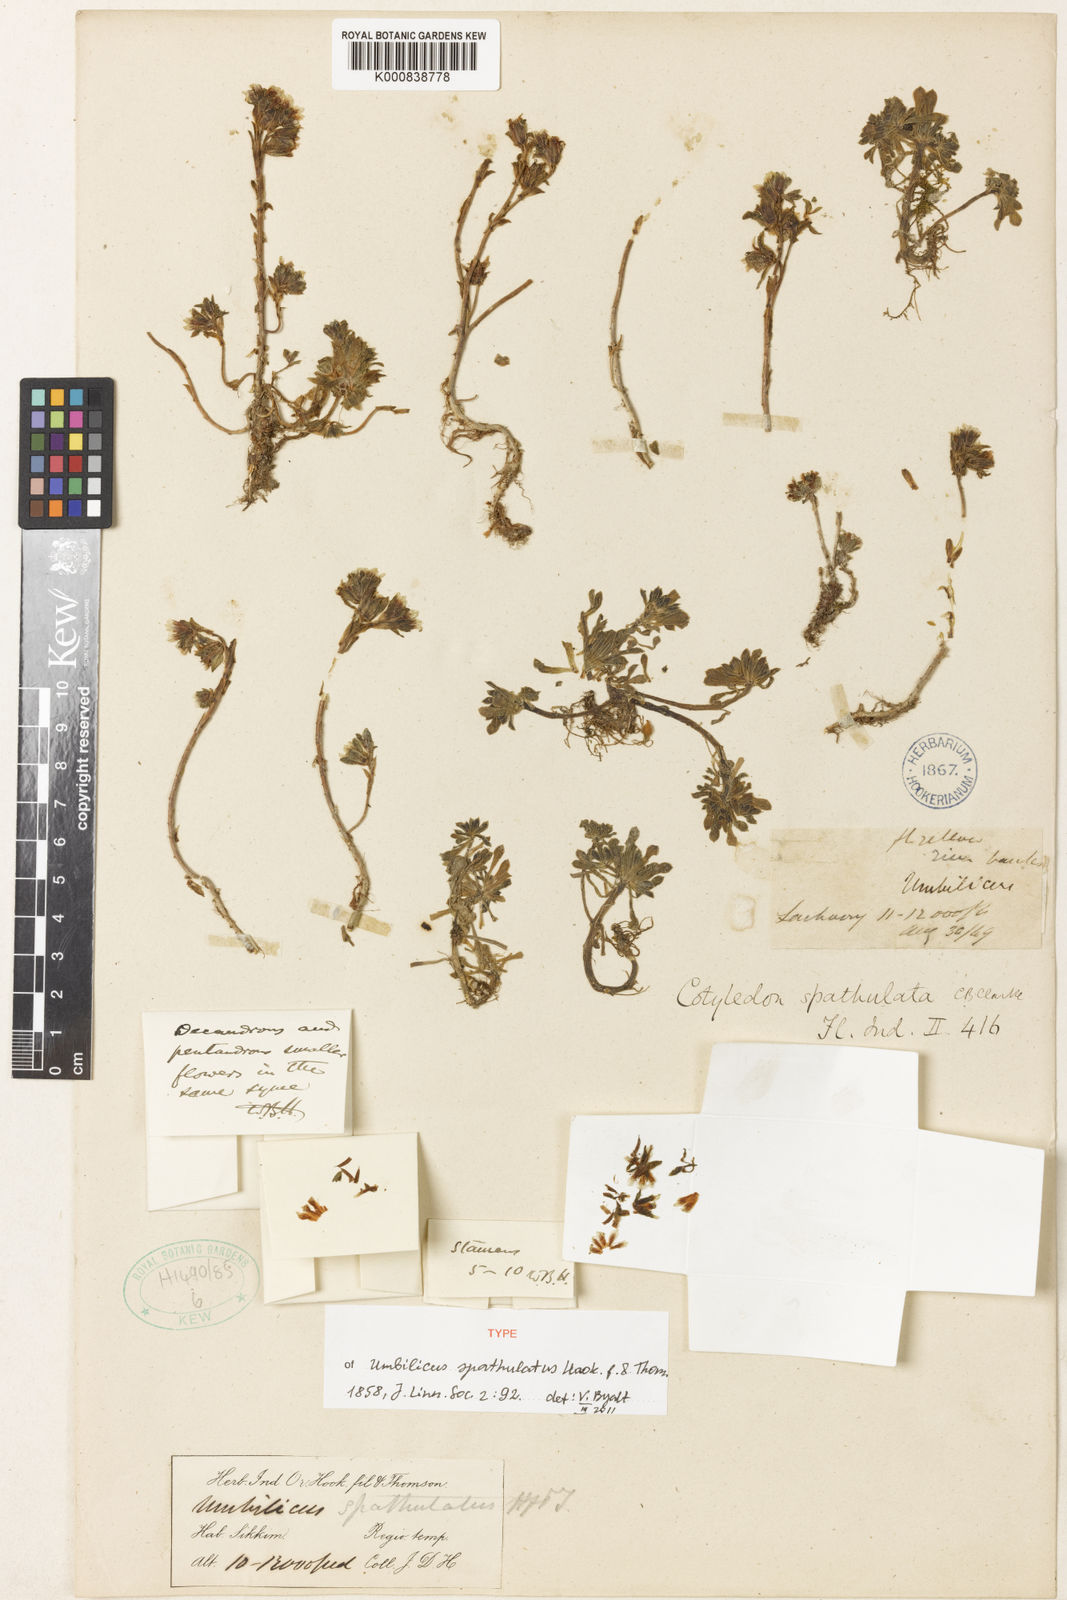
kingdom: Plantae
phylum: Tracheophyta
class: Magnoliopsida
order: Saxifragales
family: Crassulaceae
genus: Sedum
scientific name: Sedum oreades
